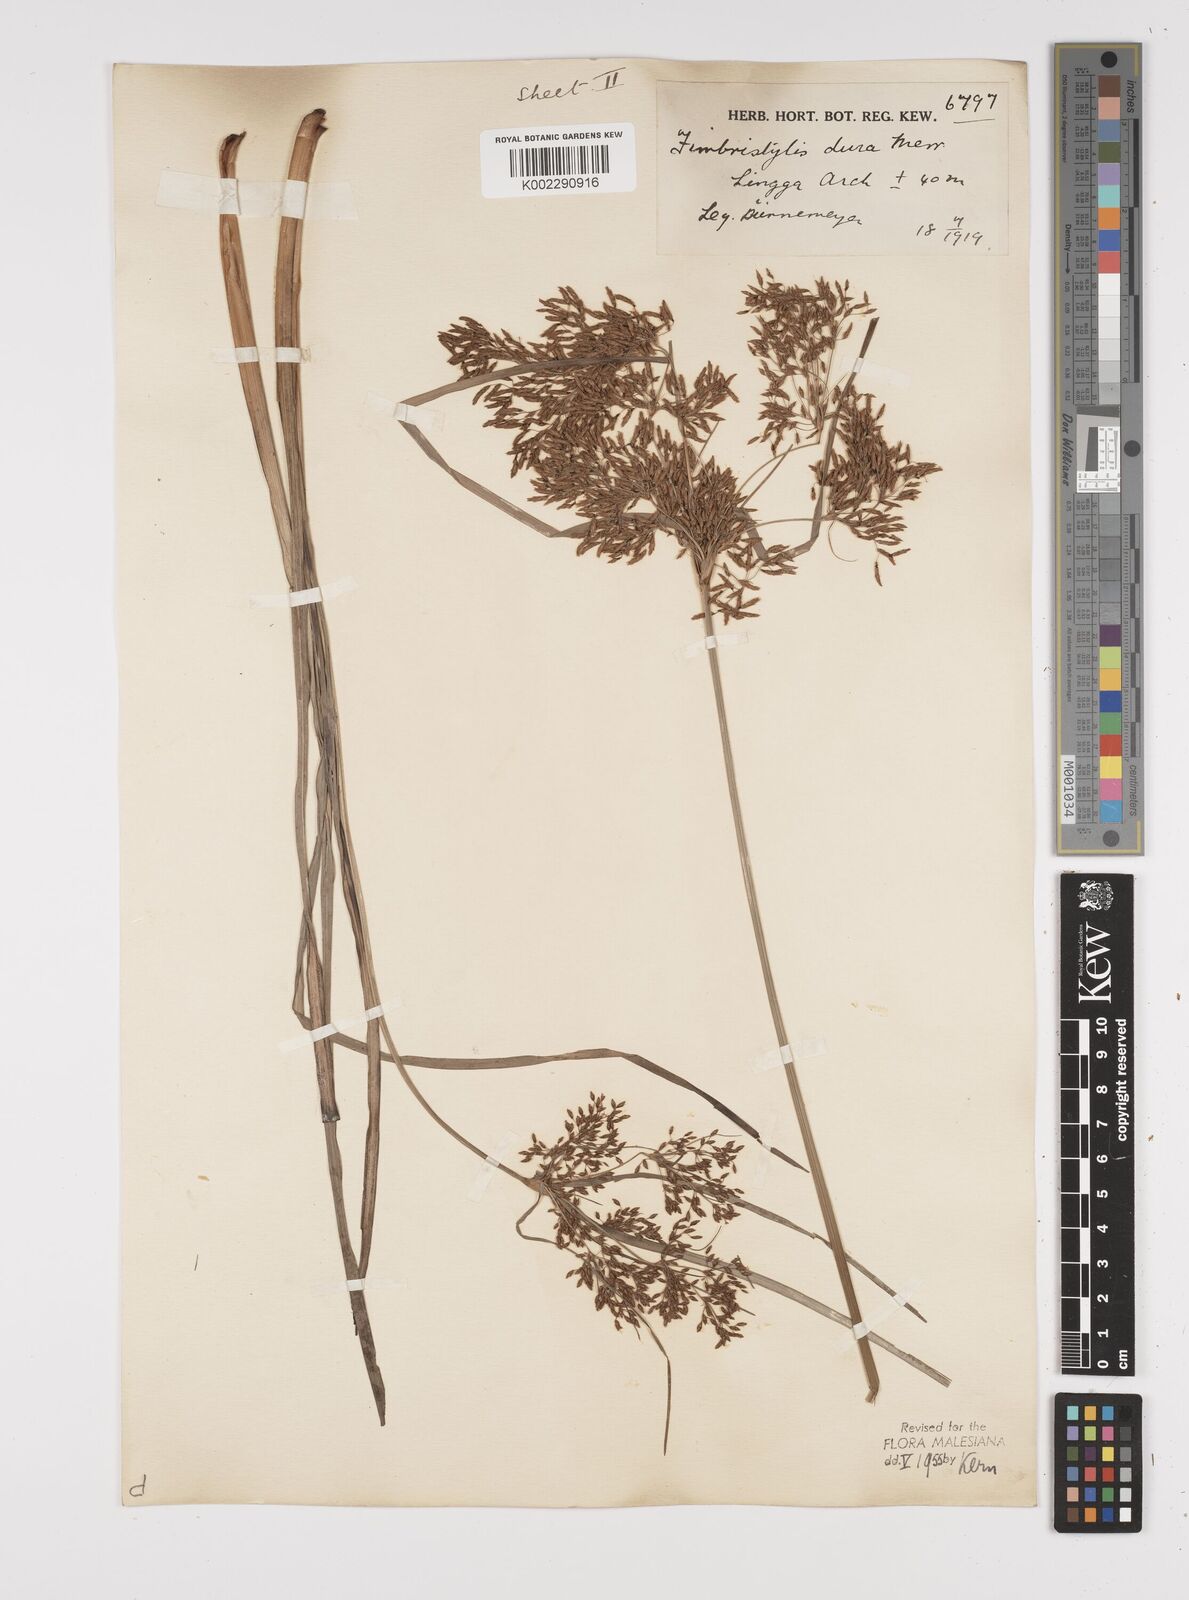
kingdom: Plantae
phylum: Tracheophyta
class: Liliopsida
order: Poales
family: Cyperaceae
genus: Fimbristylis
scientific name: Fimbristylis dura
